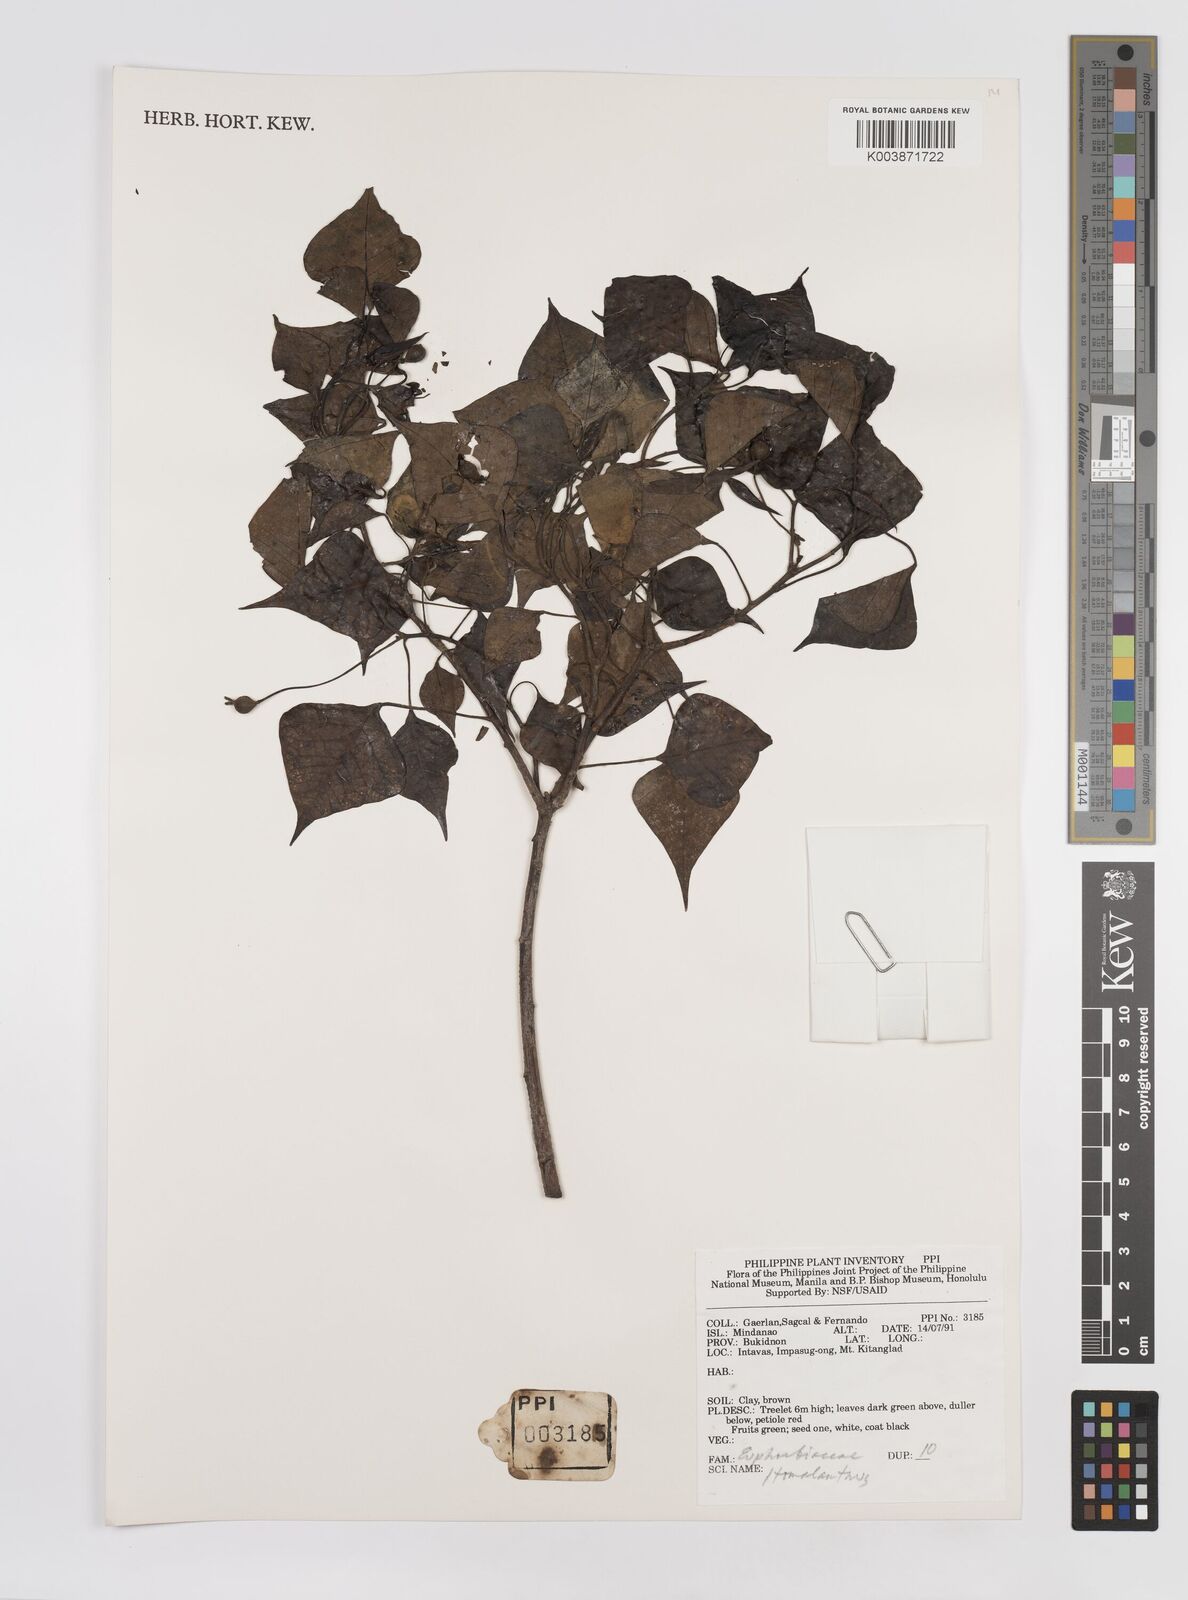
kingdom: Plantae
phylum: Tracheophyta
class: Magnoliopsida
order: Malpighiales
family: Euphorbiaceae
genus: Homalanthus
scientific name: Homalanthus populneus
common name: Spurge
